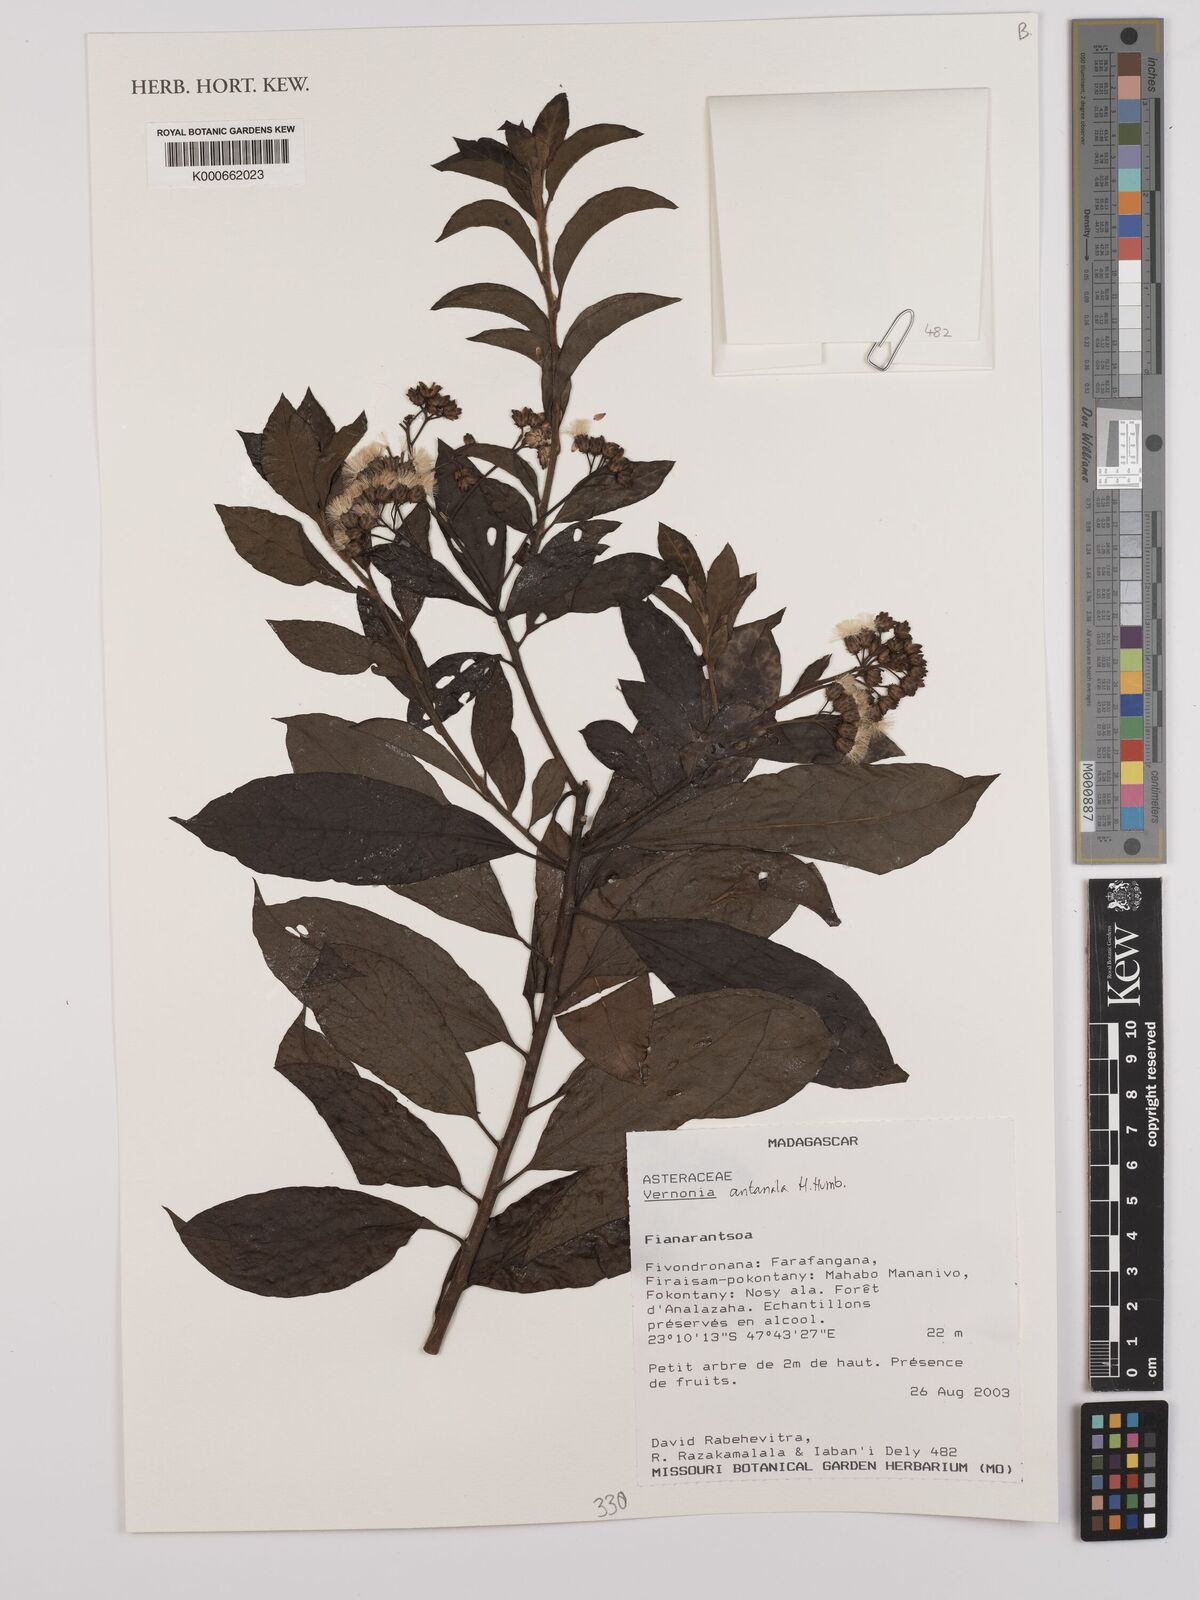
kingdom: Plantae
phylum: Tracheophyta
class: Magnoliopsida
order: Asterales
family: Asteraceae
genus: Gymnanthemum
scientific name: Gymnanthemum antanalus
